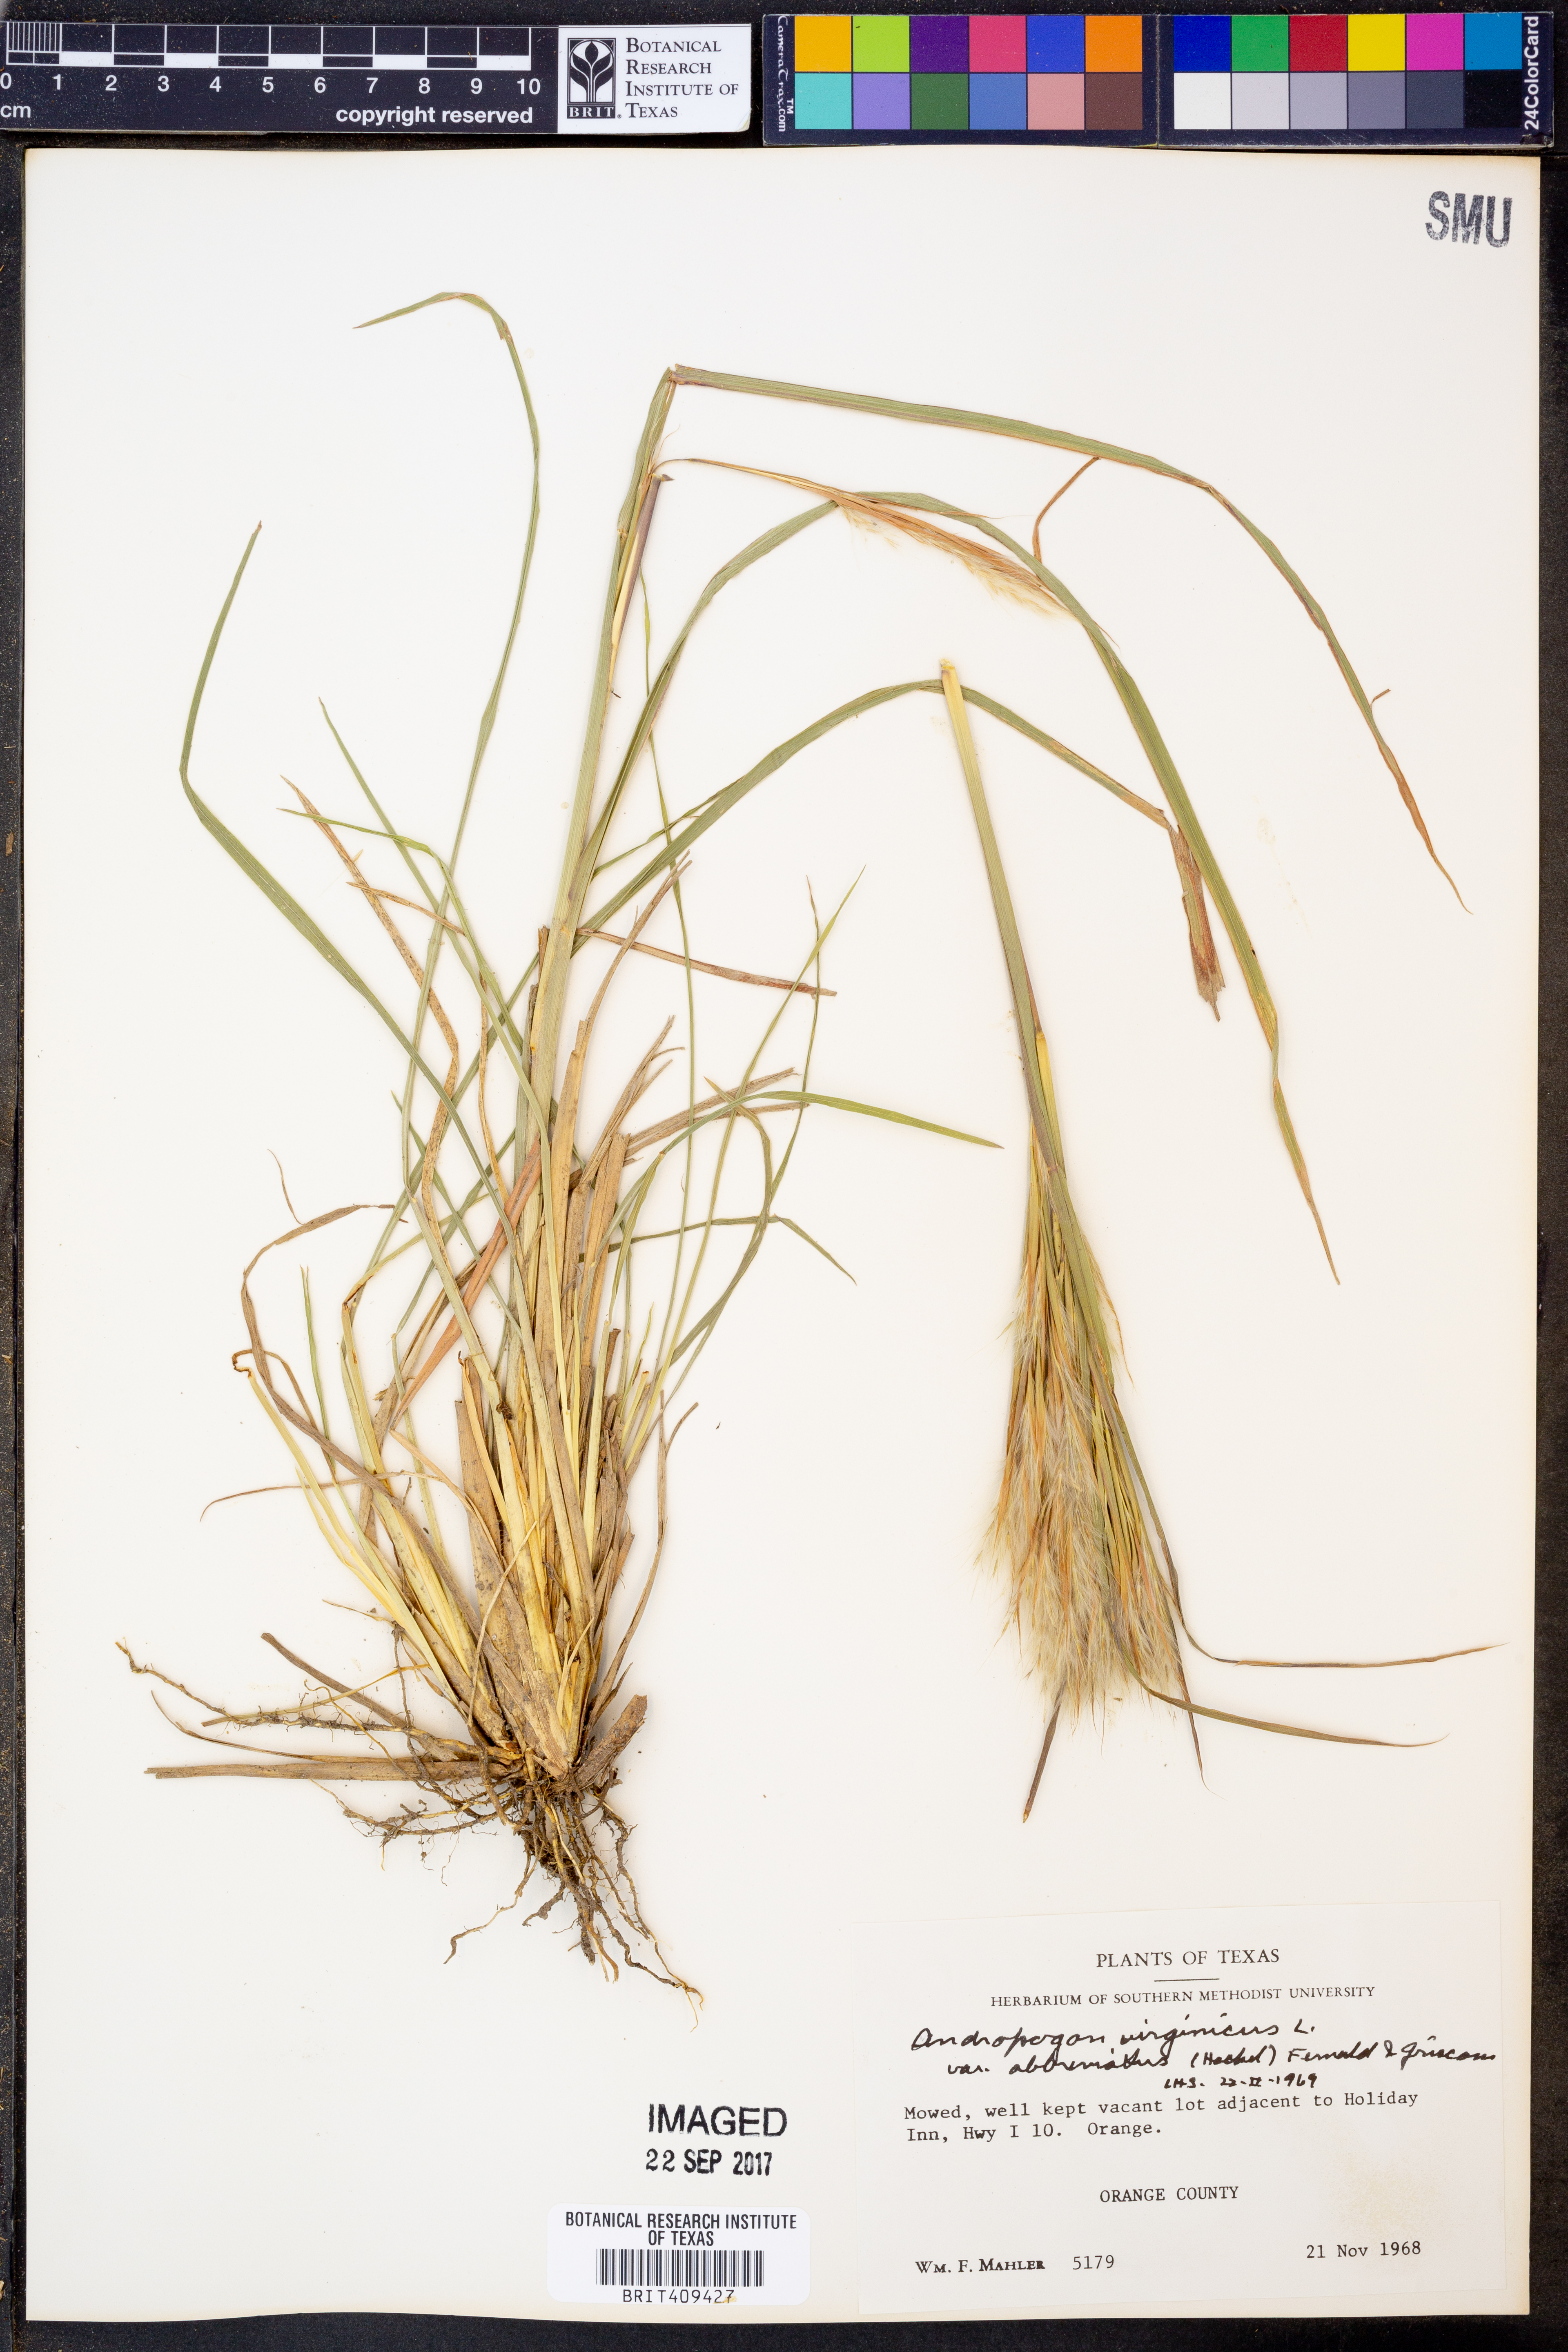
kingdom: Plantae
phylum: Tracheophyta
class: Liliopsida
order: Poales
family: Poaceae
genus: Andropogon
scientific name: Andropogon glomeratus
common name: Bushy beard grass
